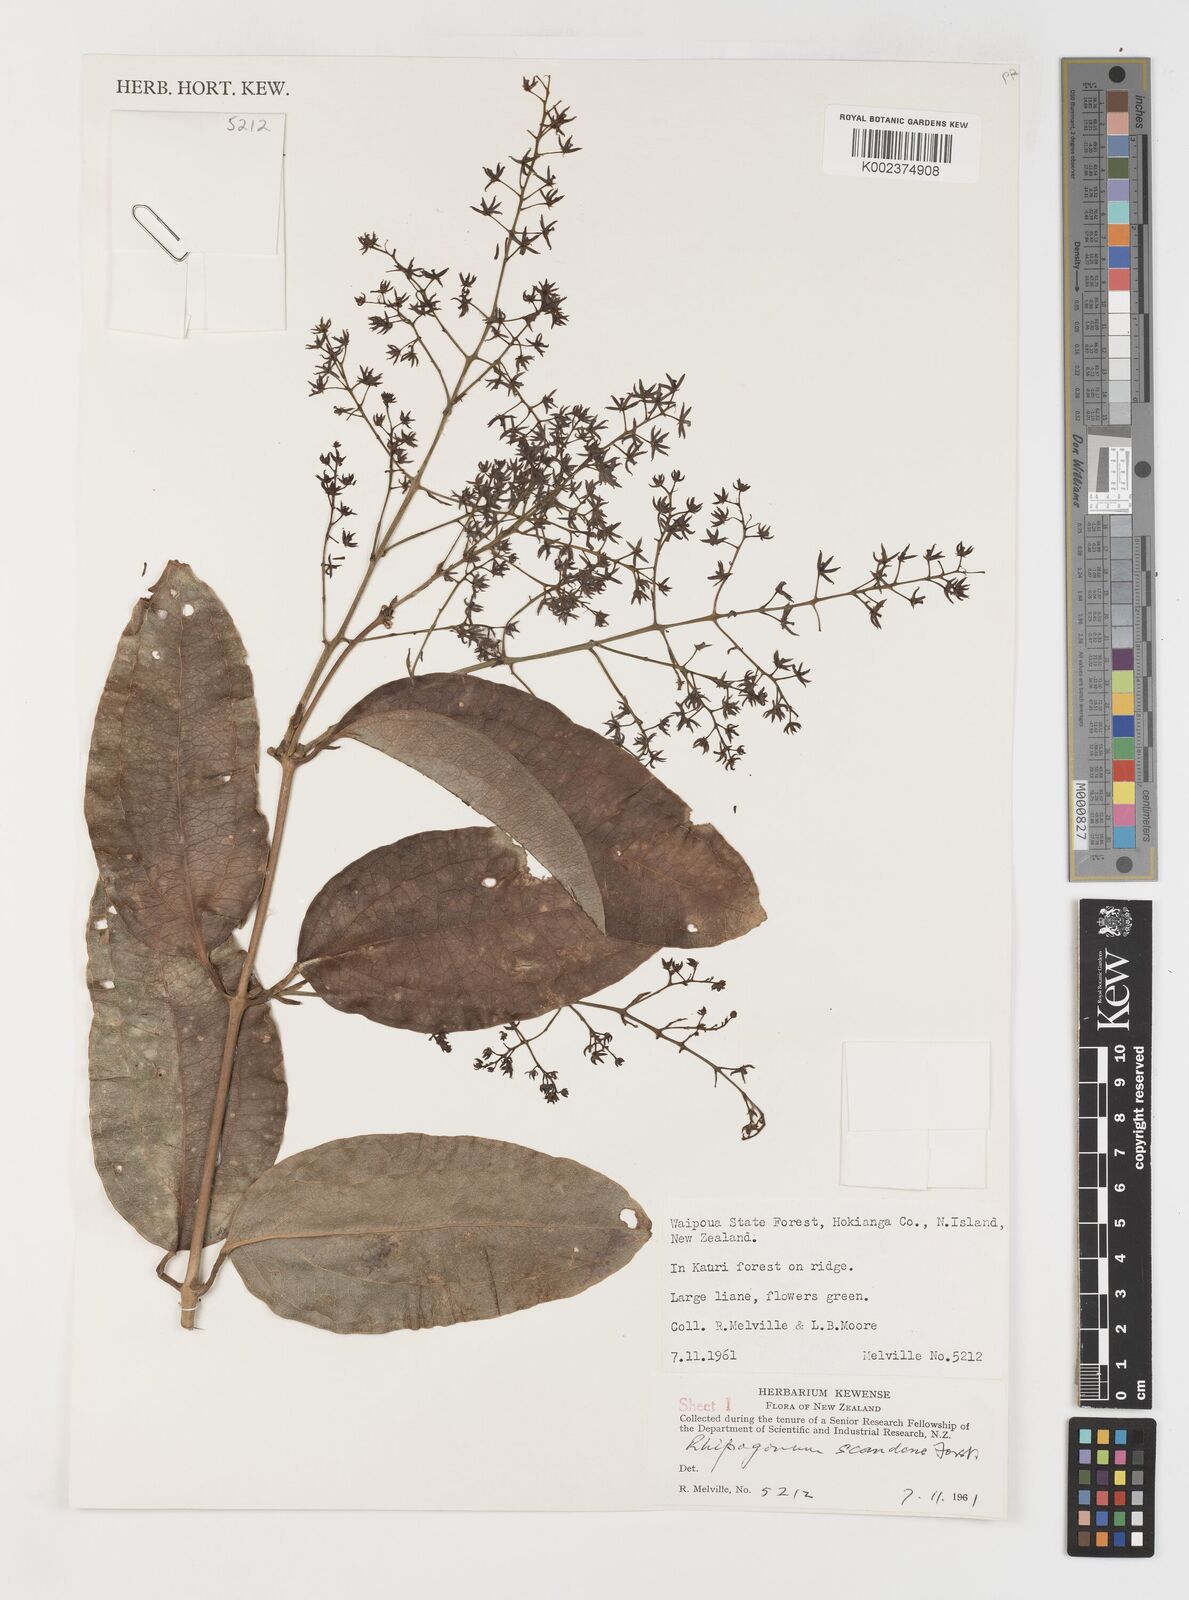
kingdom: Plantae
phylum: Tracheophyta
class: Liliopsida
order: Liliales
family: Ripogonaceae
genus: Ripogonum
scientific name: Ripogonum
